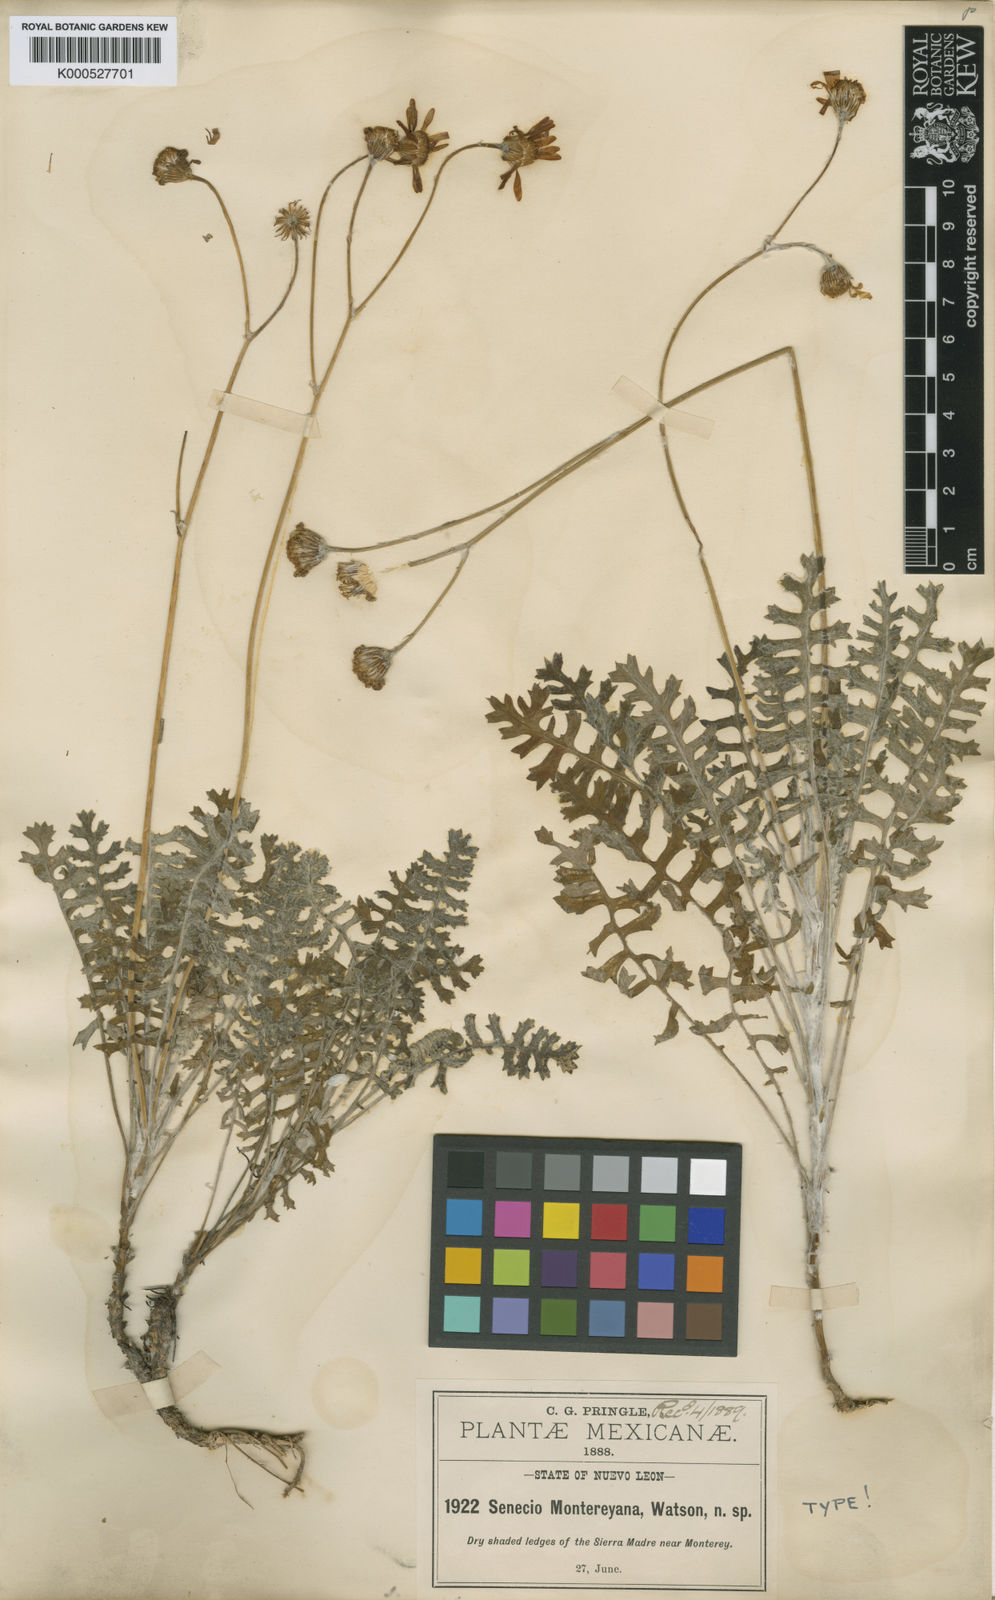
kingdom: Plantae
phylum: Tracheophyta
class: Magnoliopsida
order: Asterales
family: Asteraceae
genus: Packera
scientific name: Packera montereyana
